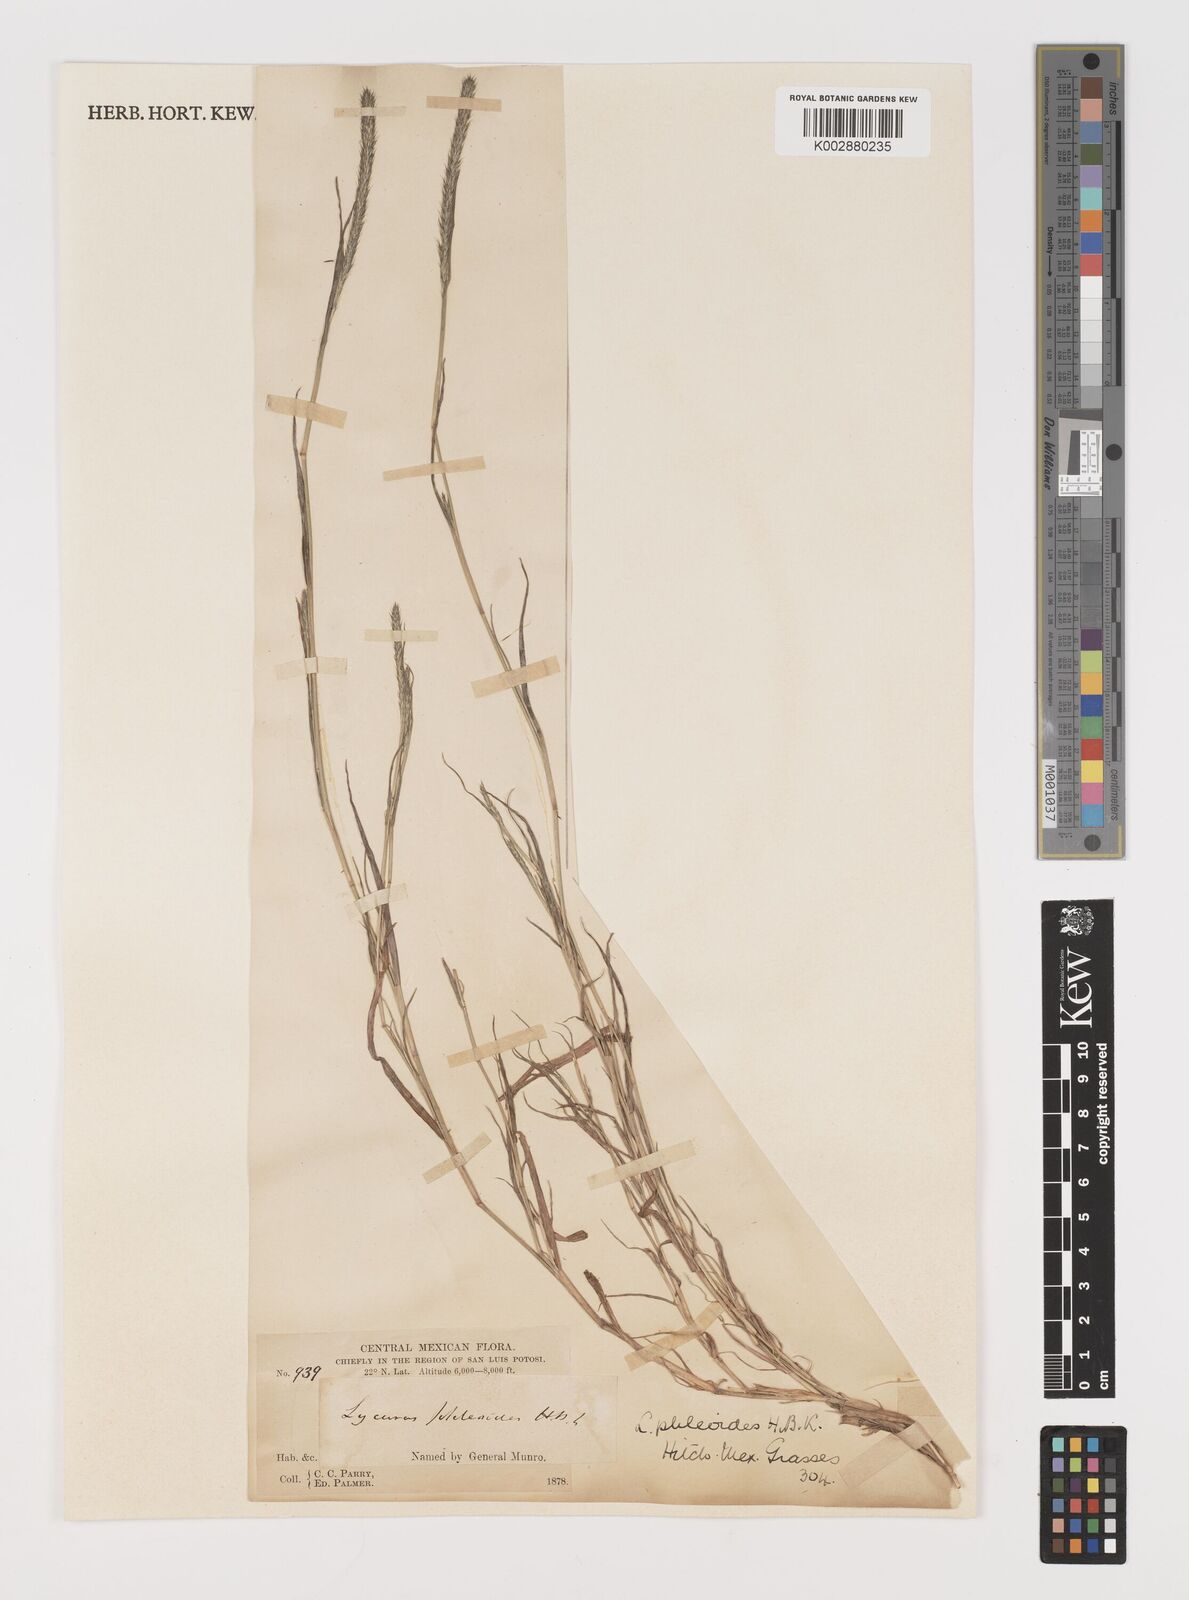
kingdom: Plantae
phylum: Tracheophyta
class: Liliopsida
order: Poales
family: Poaceae
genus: Muhlenbergia
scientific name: Muhlenbergia phleoides
